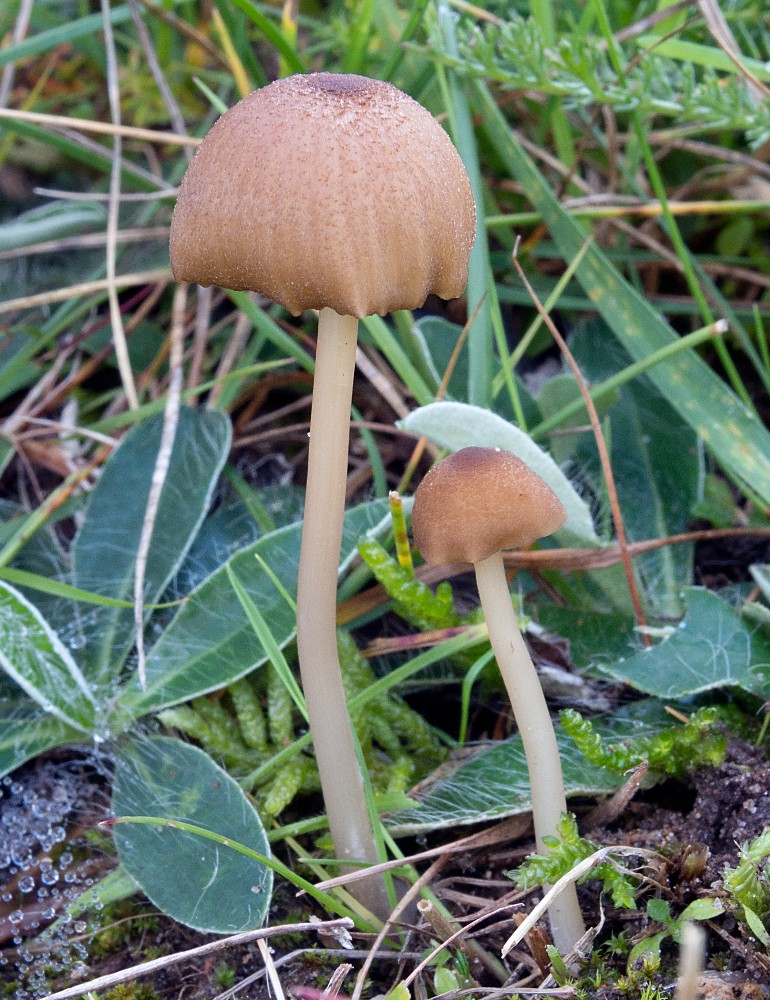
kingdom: Fungi
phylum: Basidiomycota
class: Agaricomycetes
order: Agaricales
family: Entolomataceae
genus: Entoloma
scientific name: Entoloma pseudoturci
